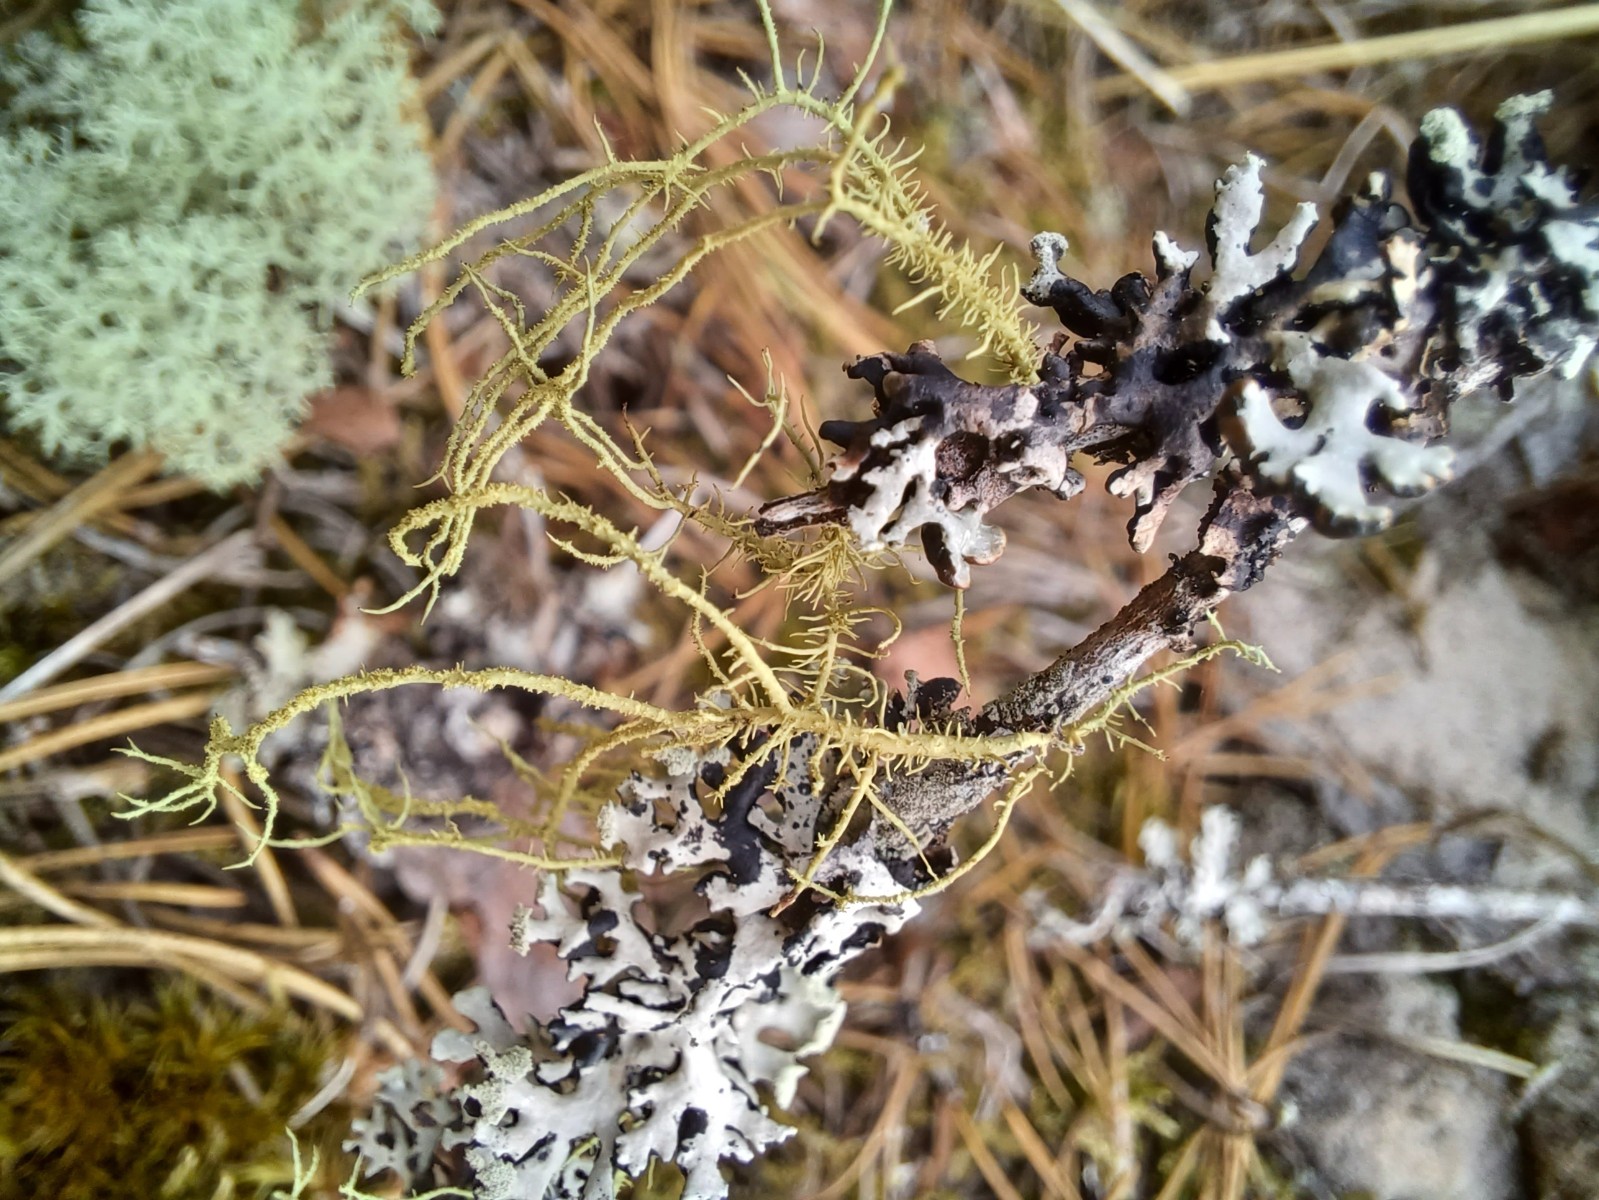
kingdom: Fungi
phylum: Ascomycota
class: Lecanoromycetes
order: Lecanorales
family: Parmeliaceae
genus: Usnea
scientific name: Usnea hirta
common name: liden skæglav
